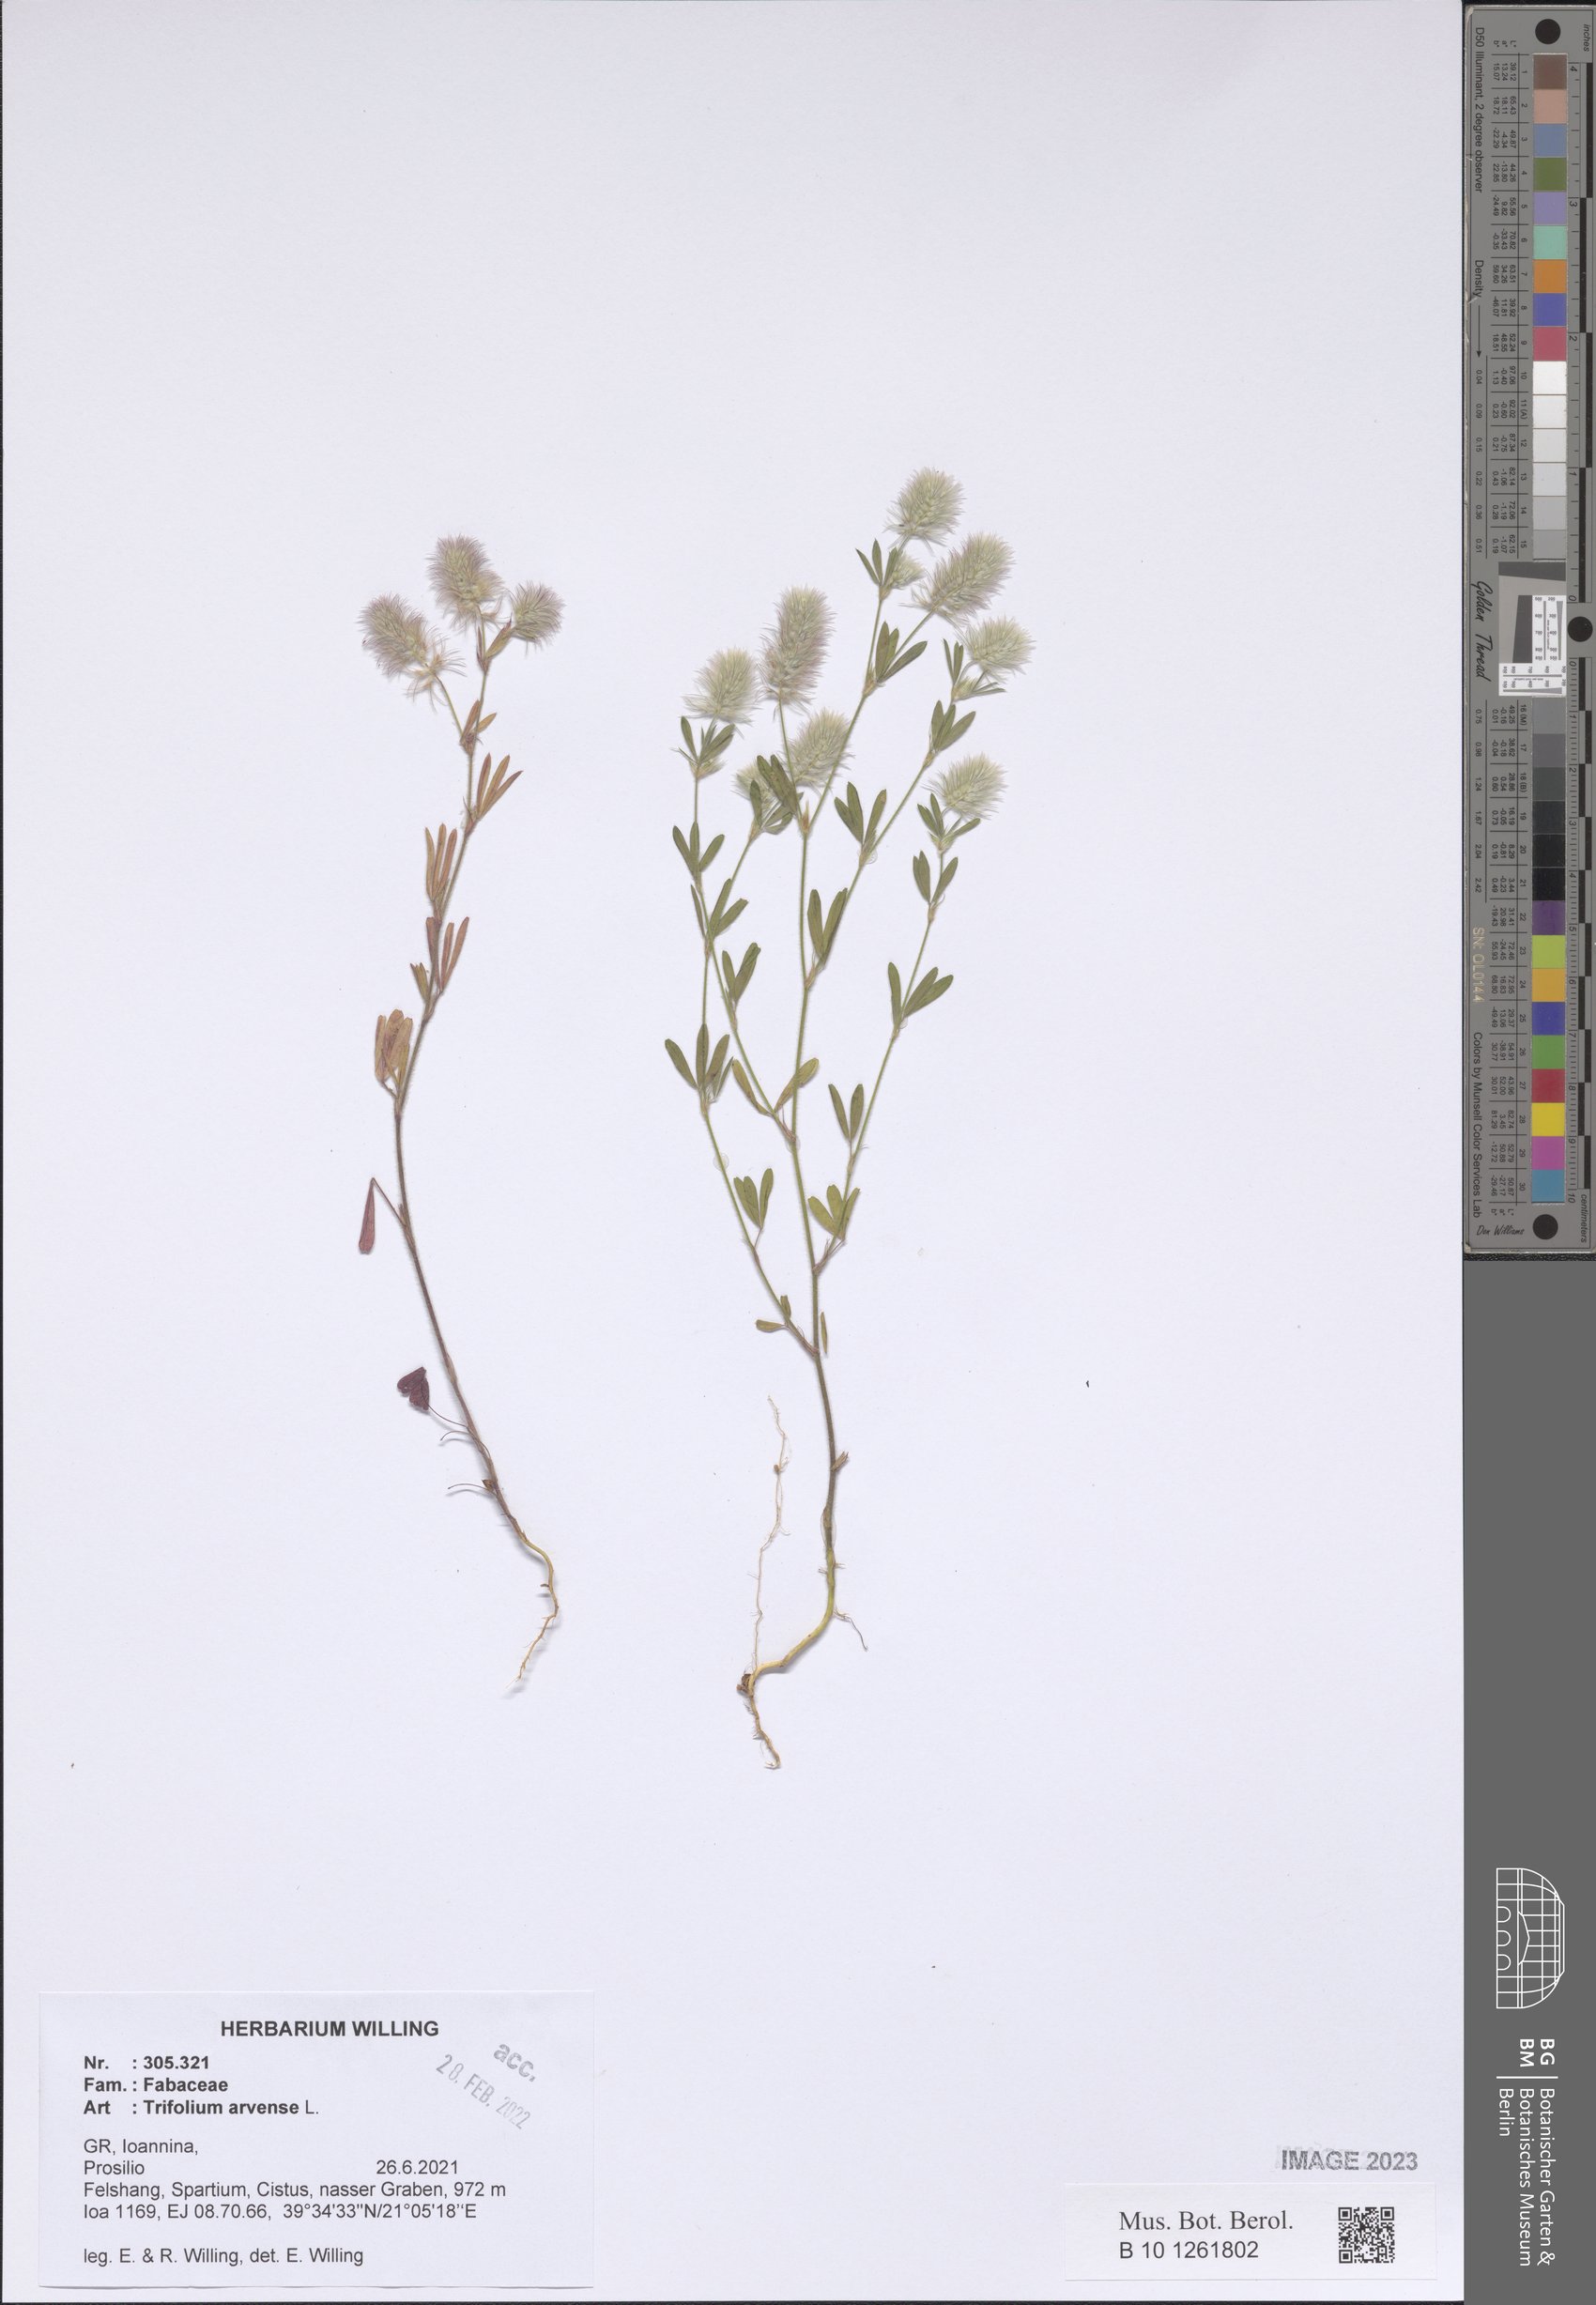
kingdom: Plantae
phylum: Tracheophyta
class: Magnoliopsida
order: Fabales
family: Fabaceae
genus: Trifolium
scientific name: Trifolium arvense
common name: Hare's-foot clover
